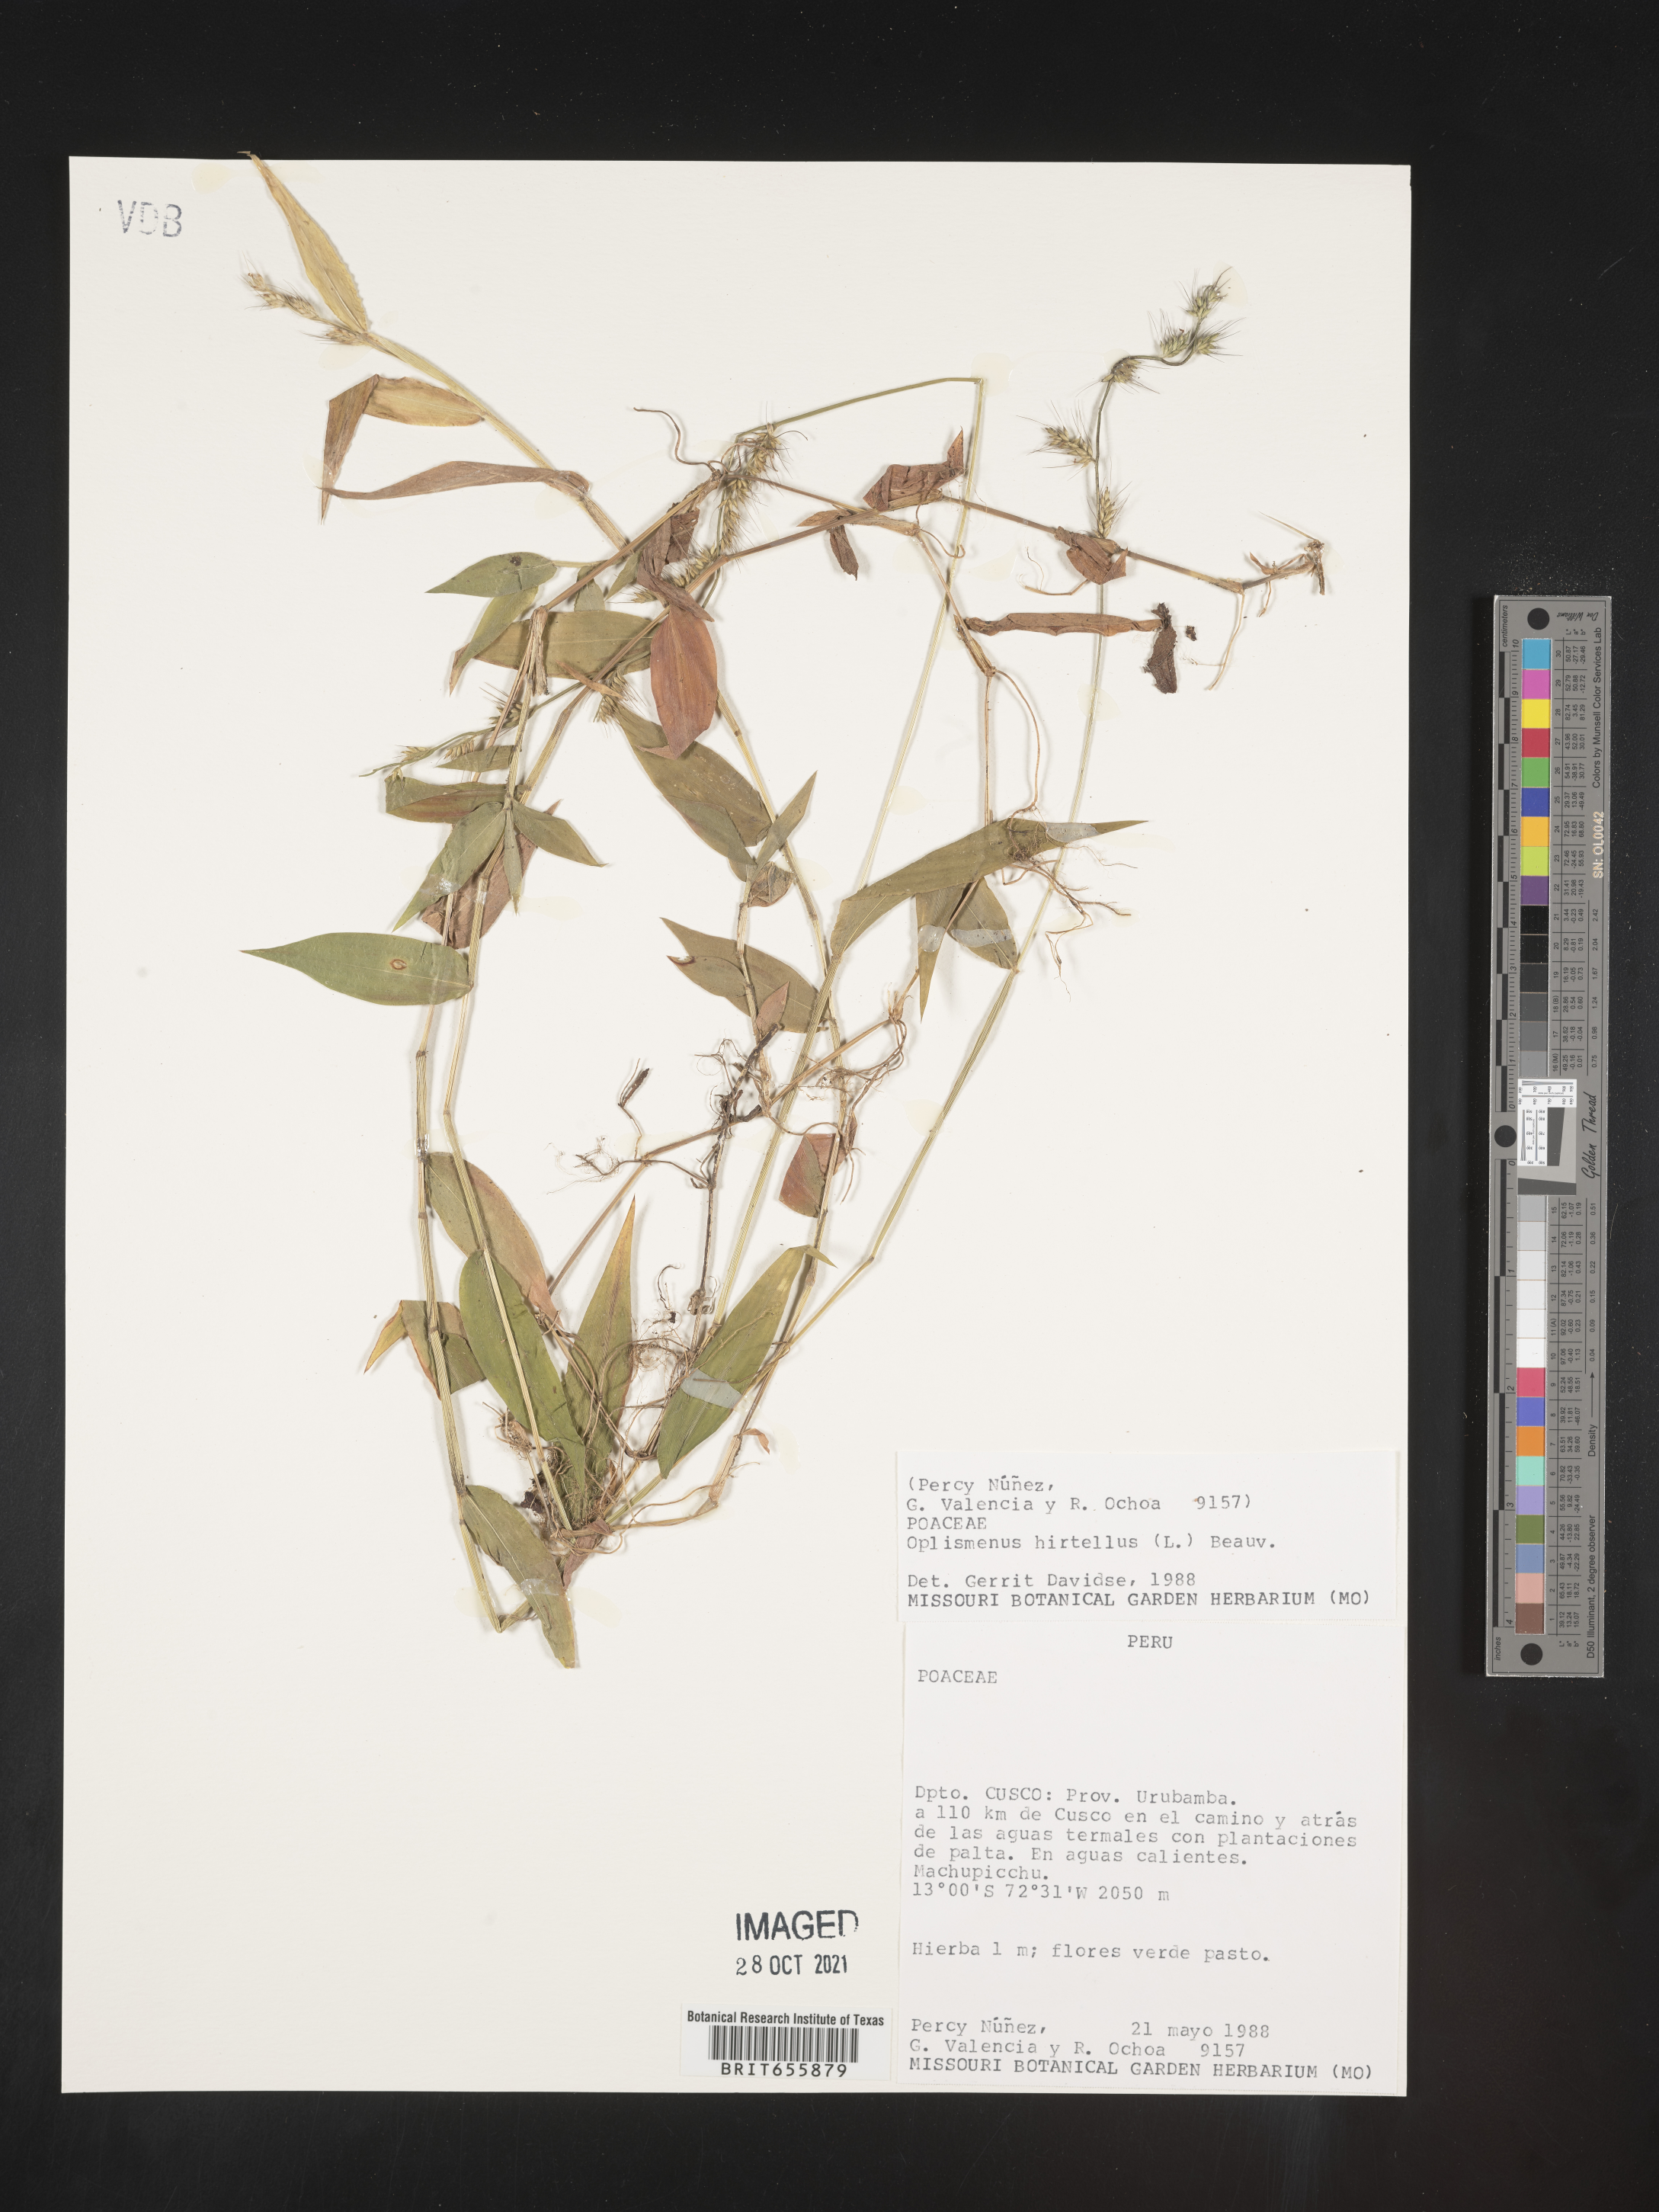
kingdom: Plantae
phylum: Tracheophyta
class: Liliopsida
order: Poales
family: Poaceae
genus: Oplismenus
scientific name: Oplismenus
